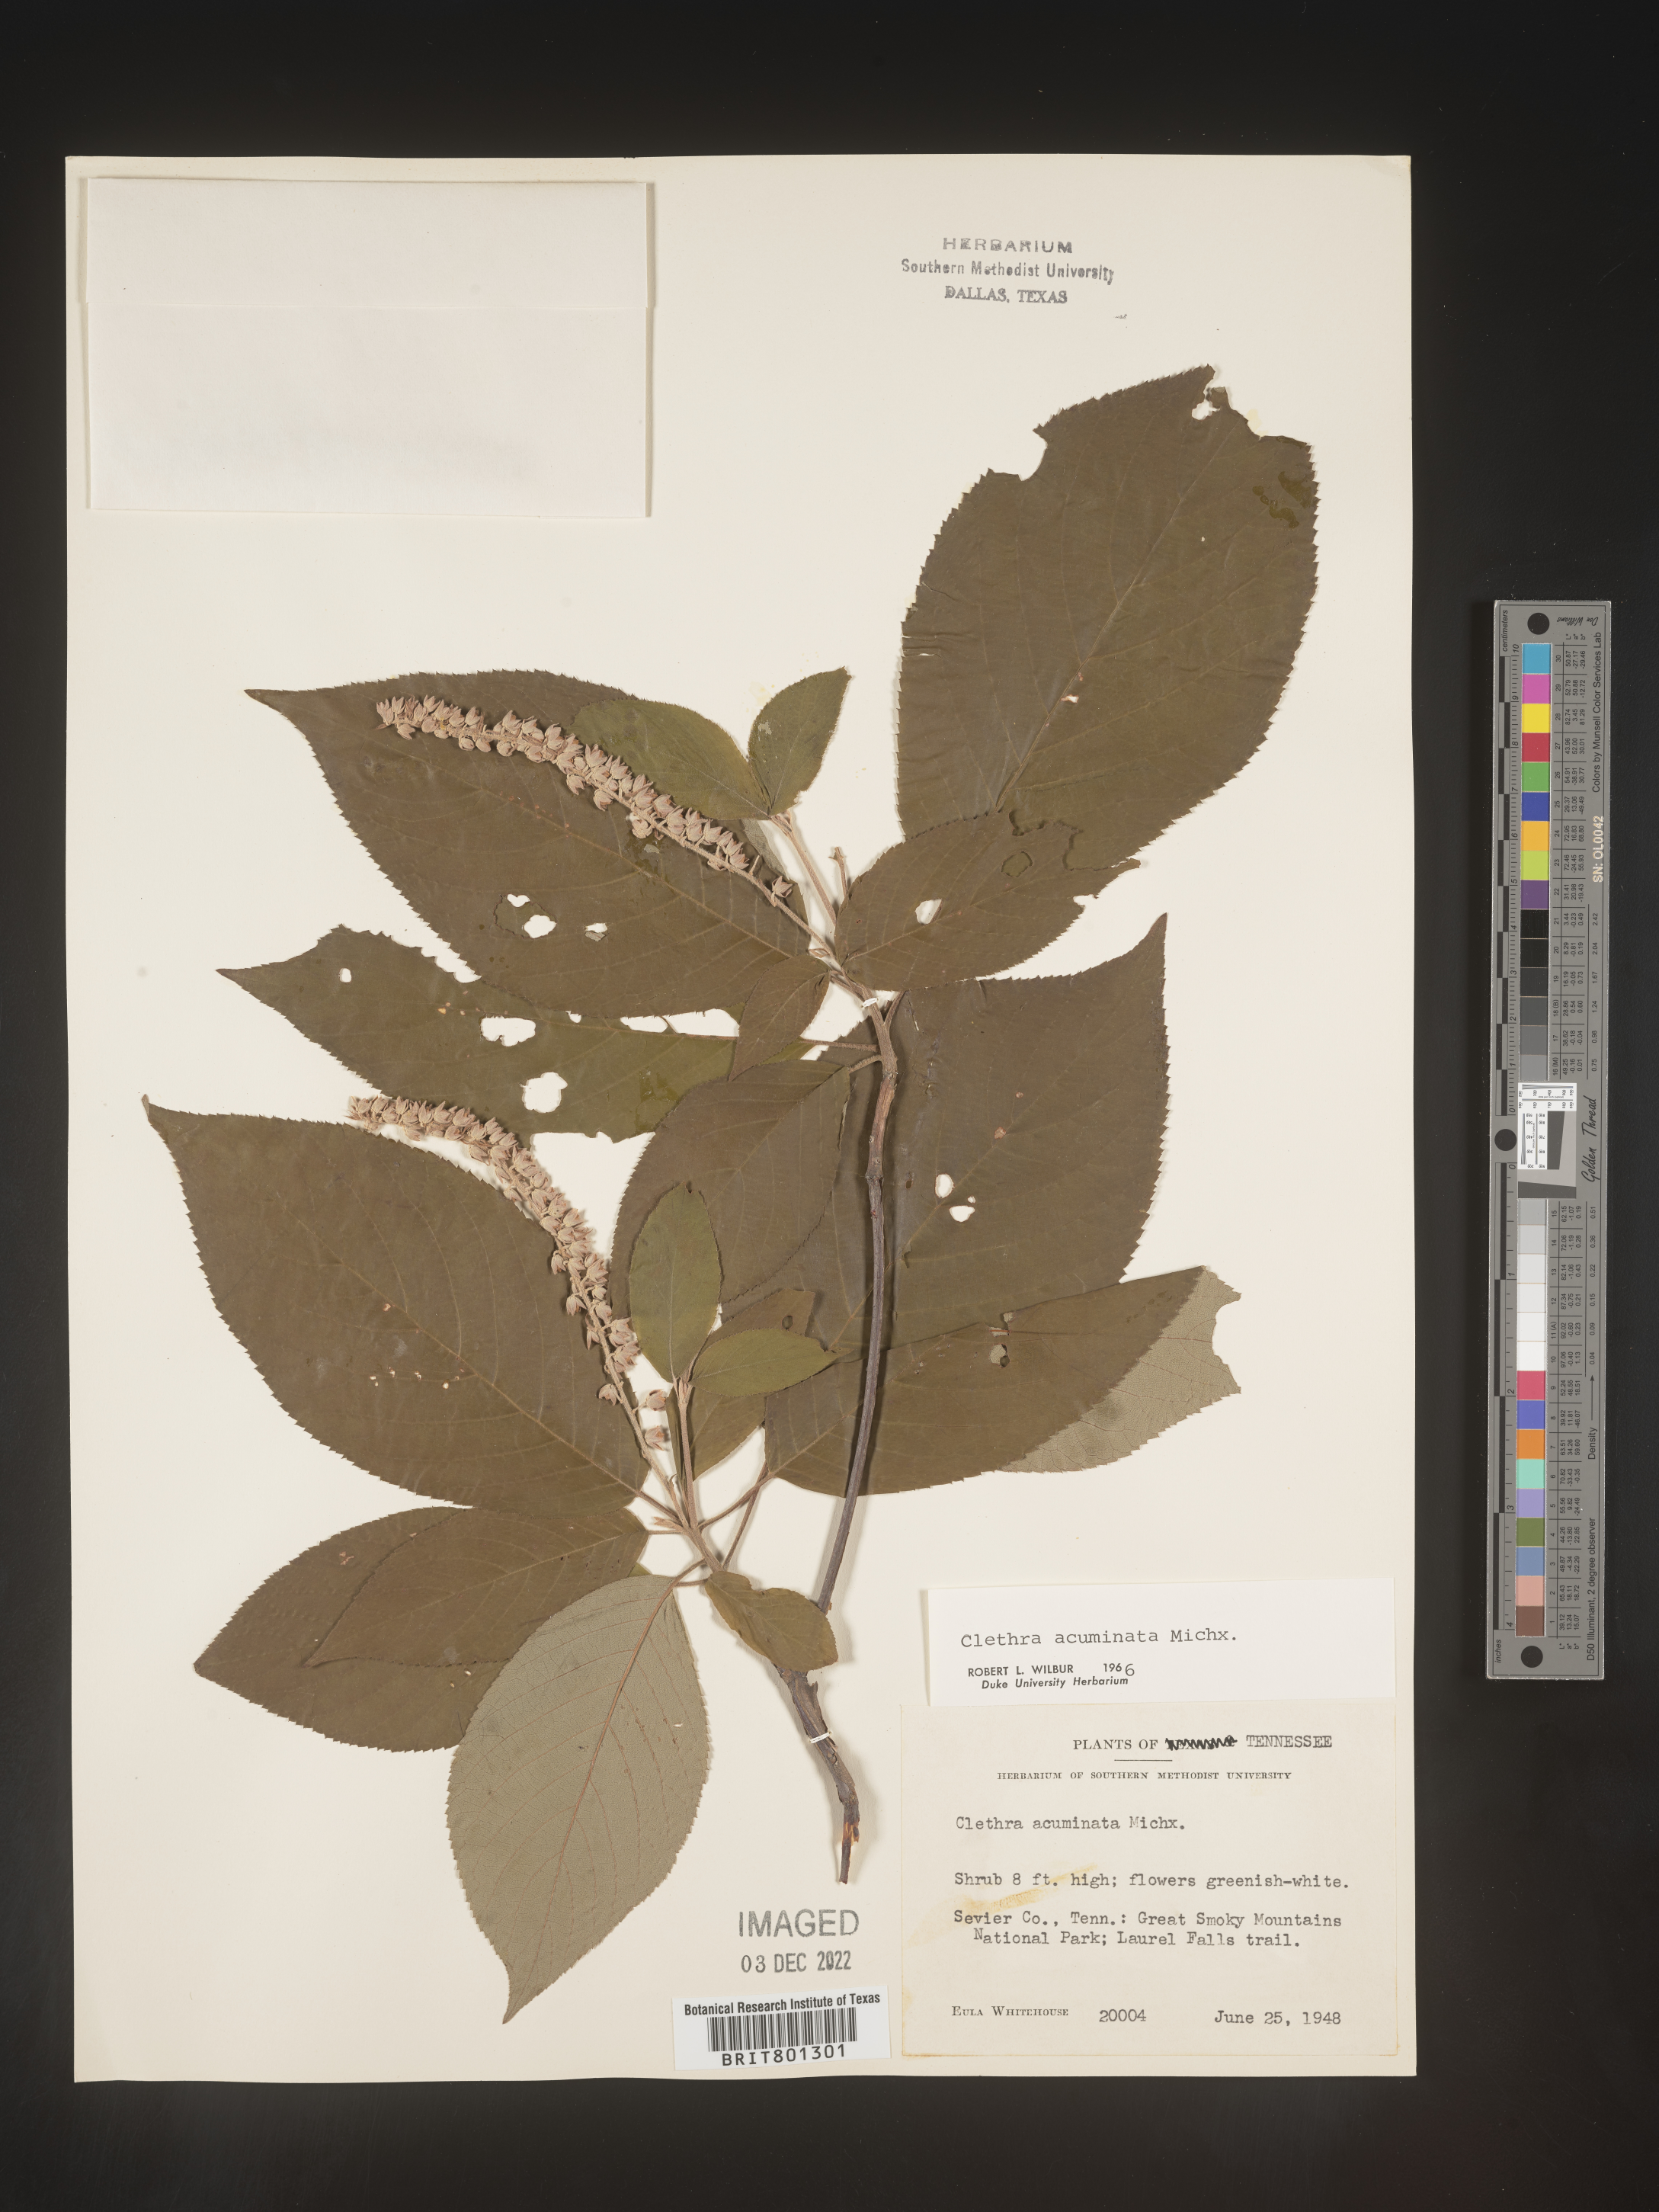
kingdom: Plantae
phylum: Tracheophyta
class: Magnoliopsida
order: Ericales
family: Clethraceae
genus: Clethra
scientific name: Clethra acuminata
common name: Mountain sweet pepperbush
